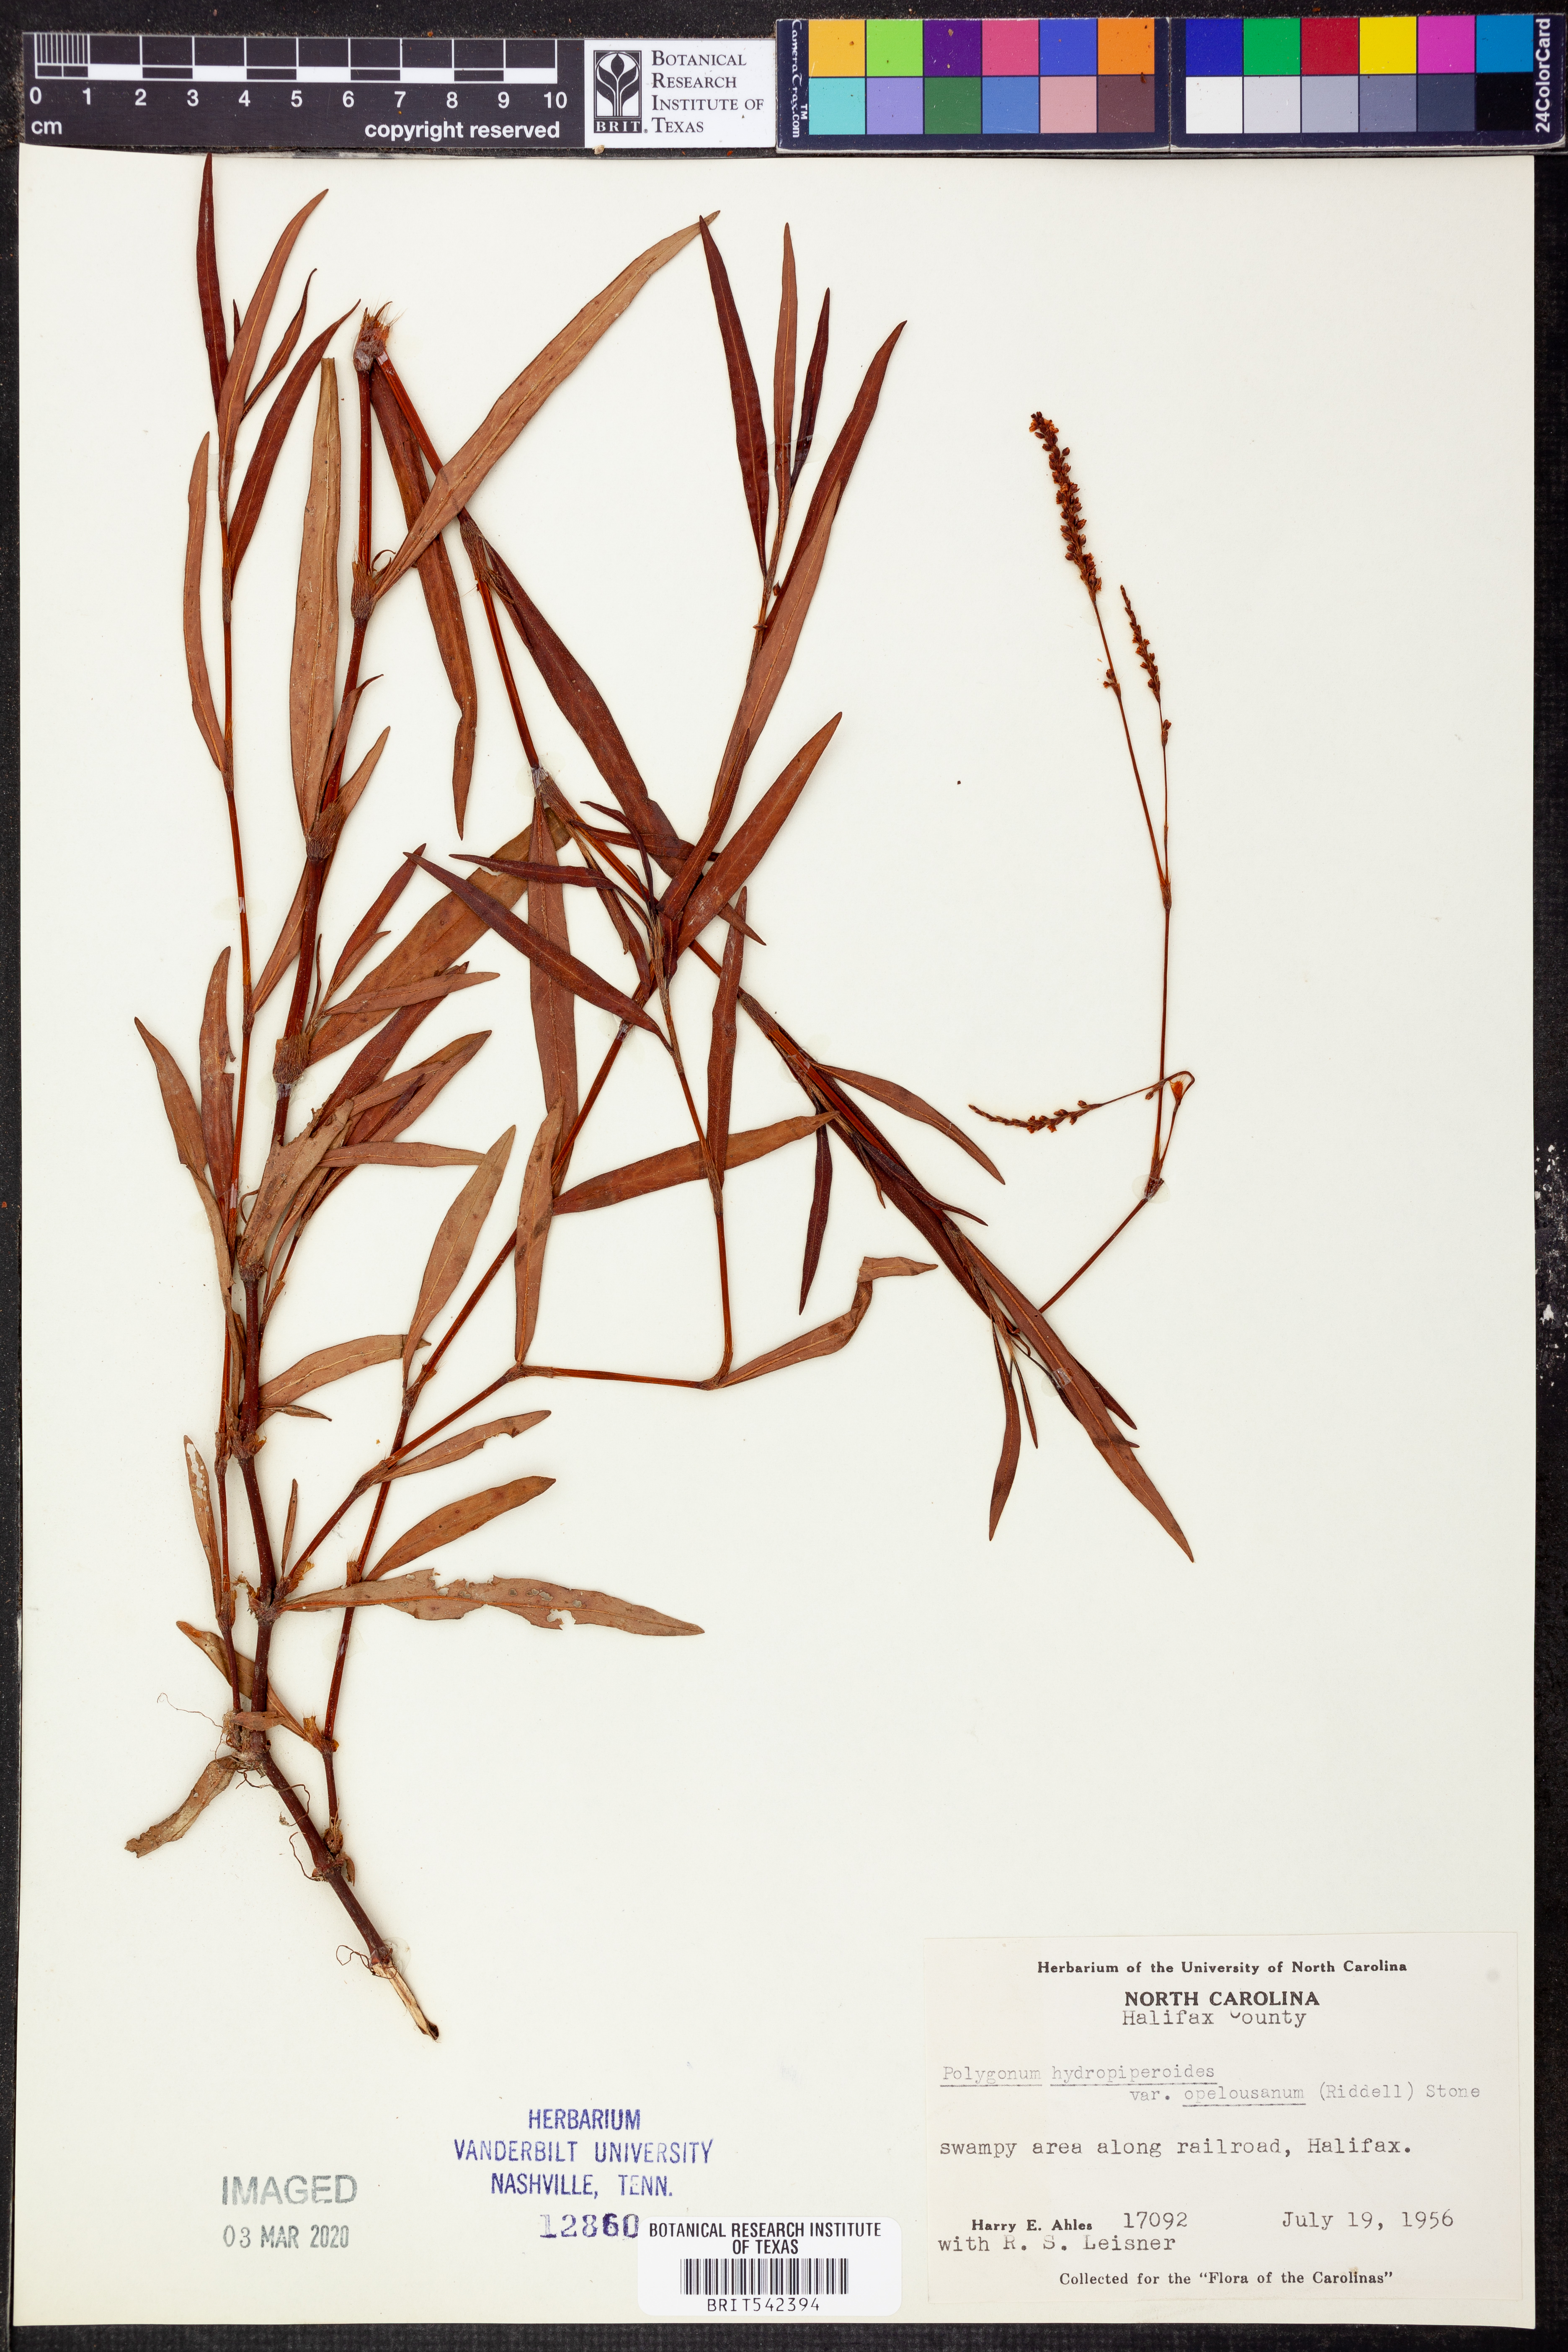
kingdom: Plantae
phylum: Tracheophyta
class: Magnoliopsida
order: Caryophyllales
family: Polygonaceae
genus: Persicaria
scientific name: Persicaria hydropiperoides
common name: Swamp smartweed
